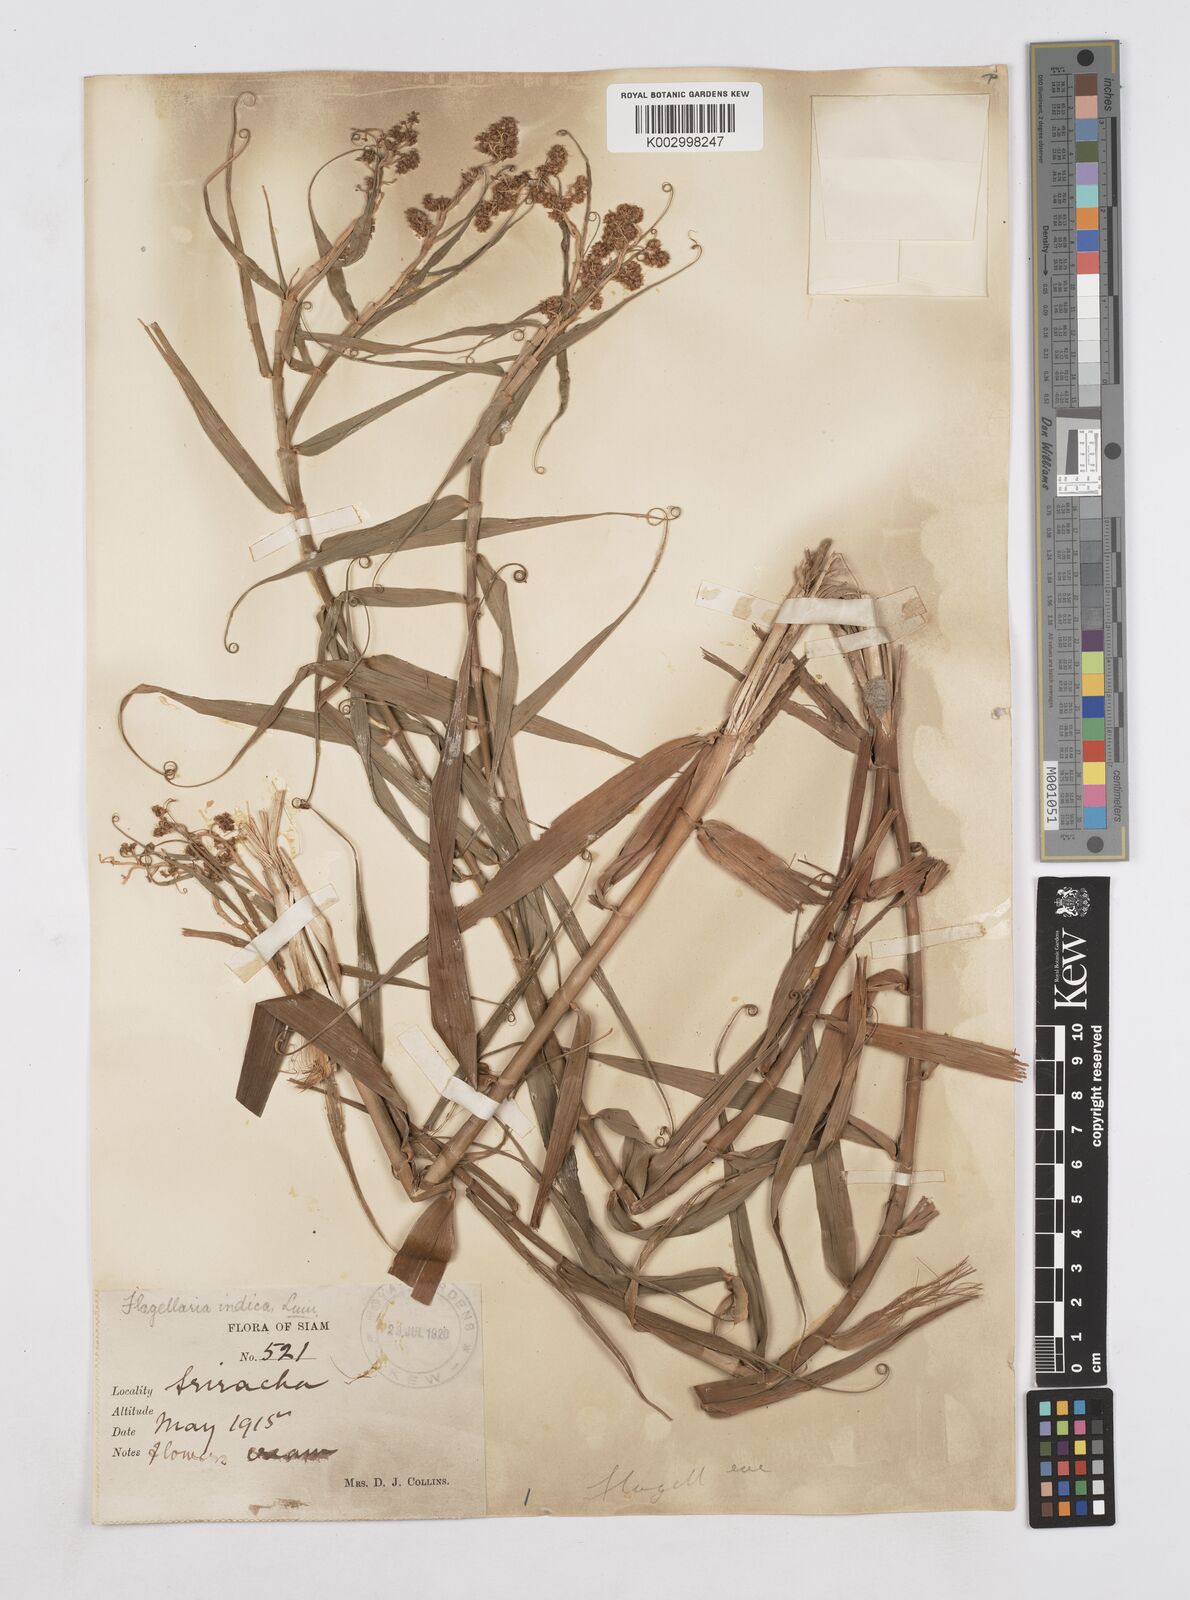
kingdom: Plantae
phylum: Tracheophyta
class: Liliopsida
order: Poales
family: Flagellariaceae
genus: Flagellaria
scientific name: Flagellaria indica
